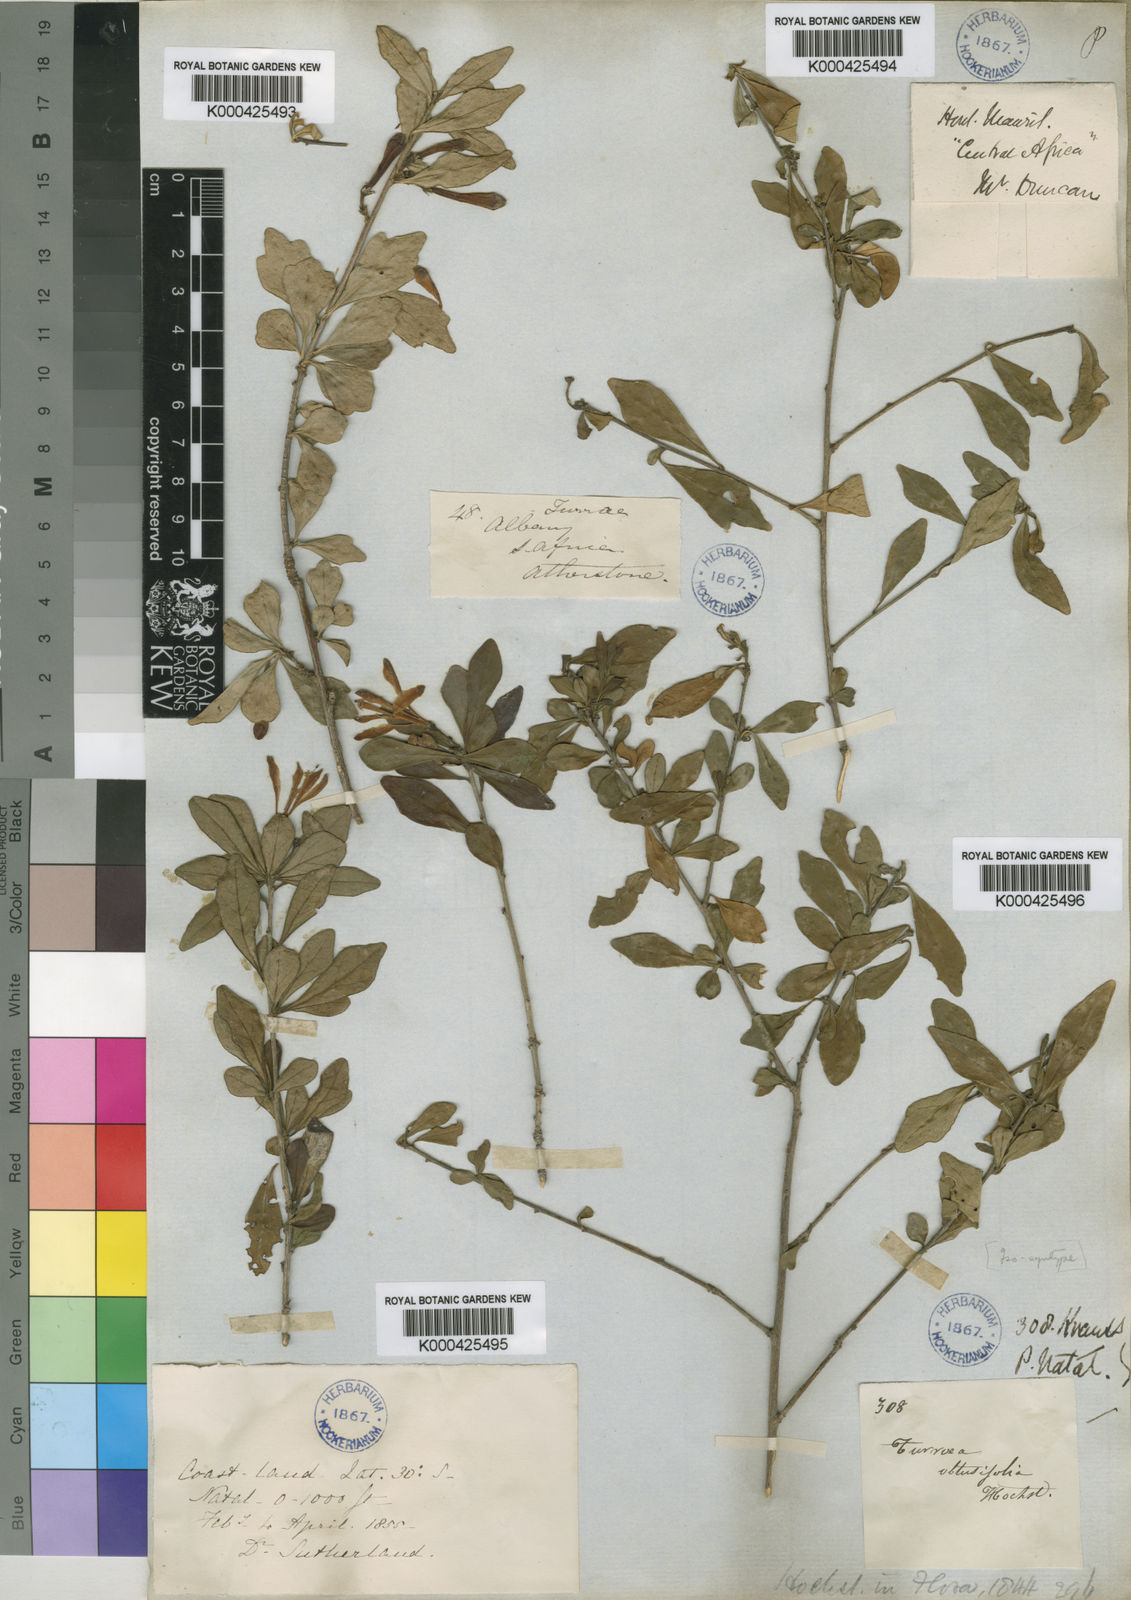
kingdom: Plantae
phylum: Tracheophyta
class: Magnoliopsida
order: Sapindales
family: Meliaceae
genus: Turraea
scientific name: Turraea obtusifolia
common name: Small honeysuckle tree
